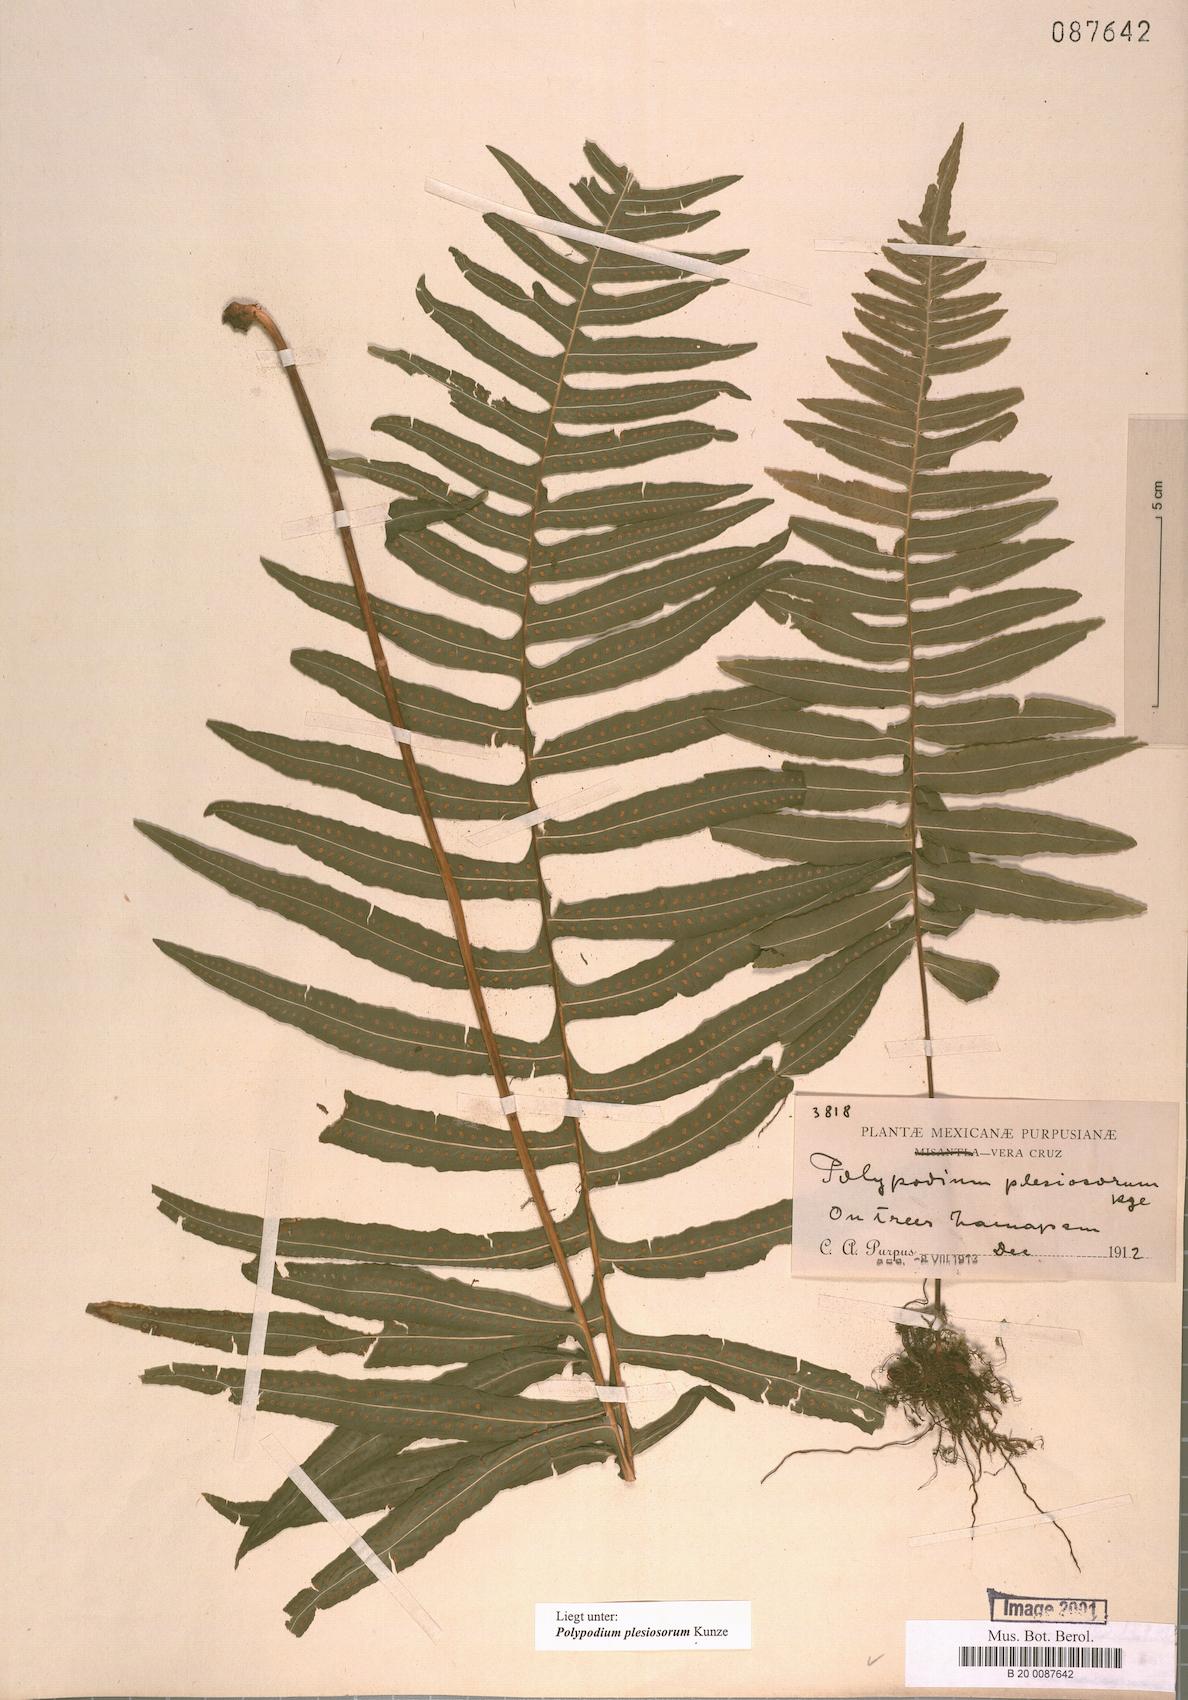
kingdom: Plantae
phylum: Tracheophyta
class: Polypodiopsida
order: Polypodiales
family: Polypodiaceae
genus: Polypodium
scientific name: Polypodium plesiosorum
